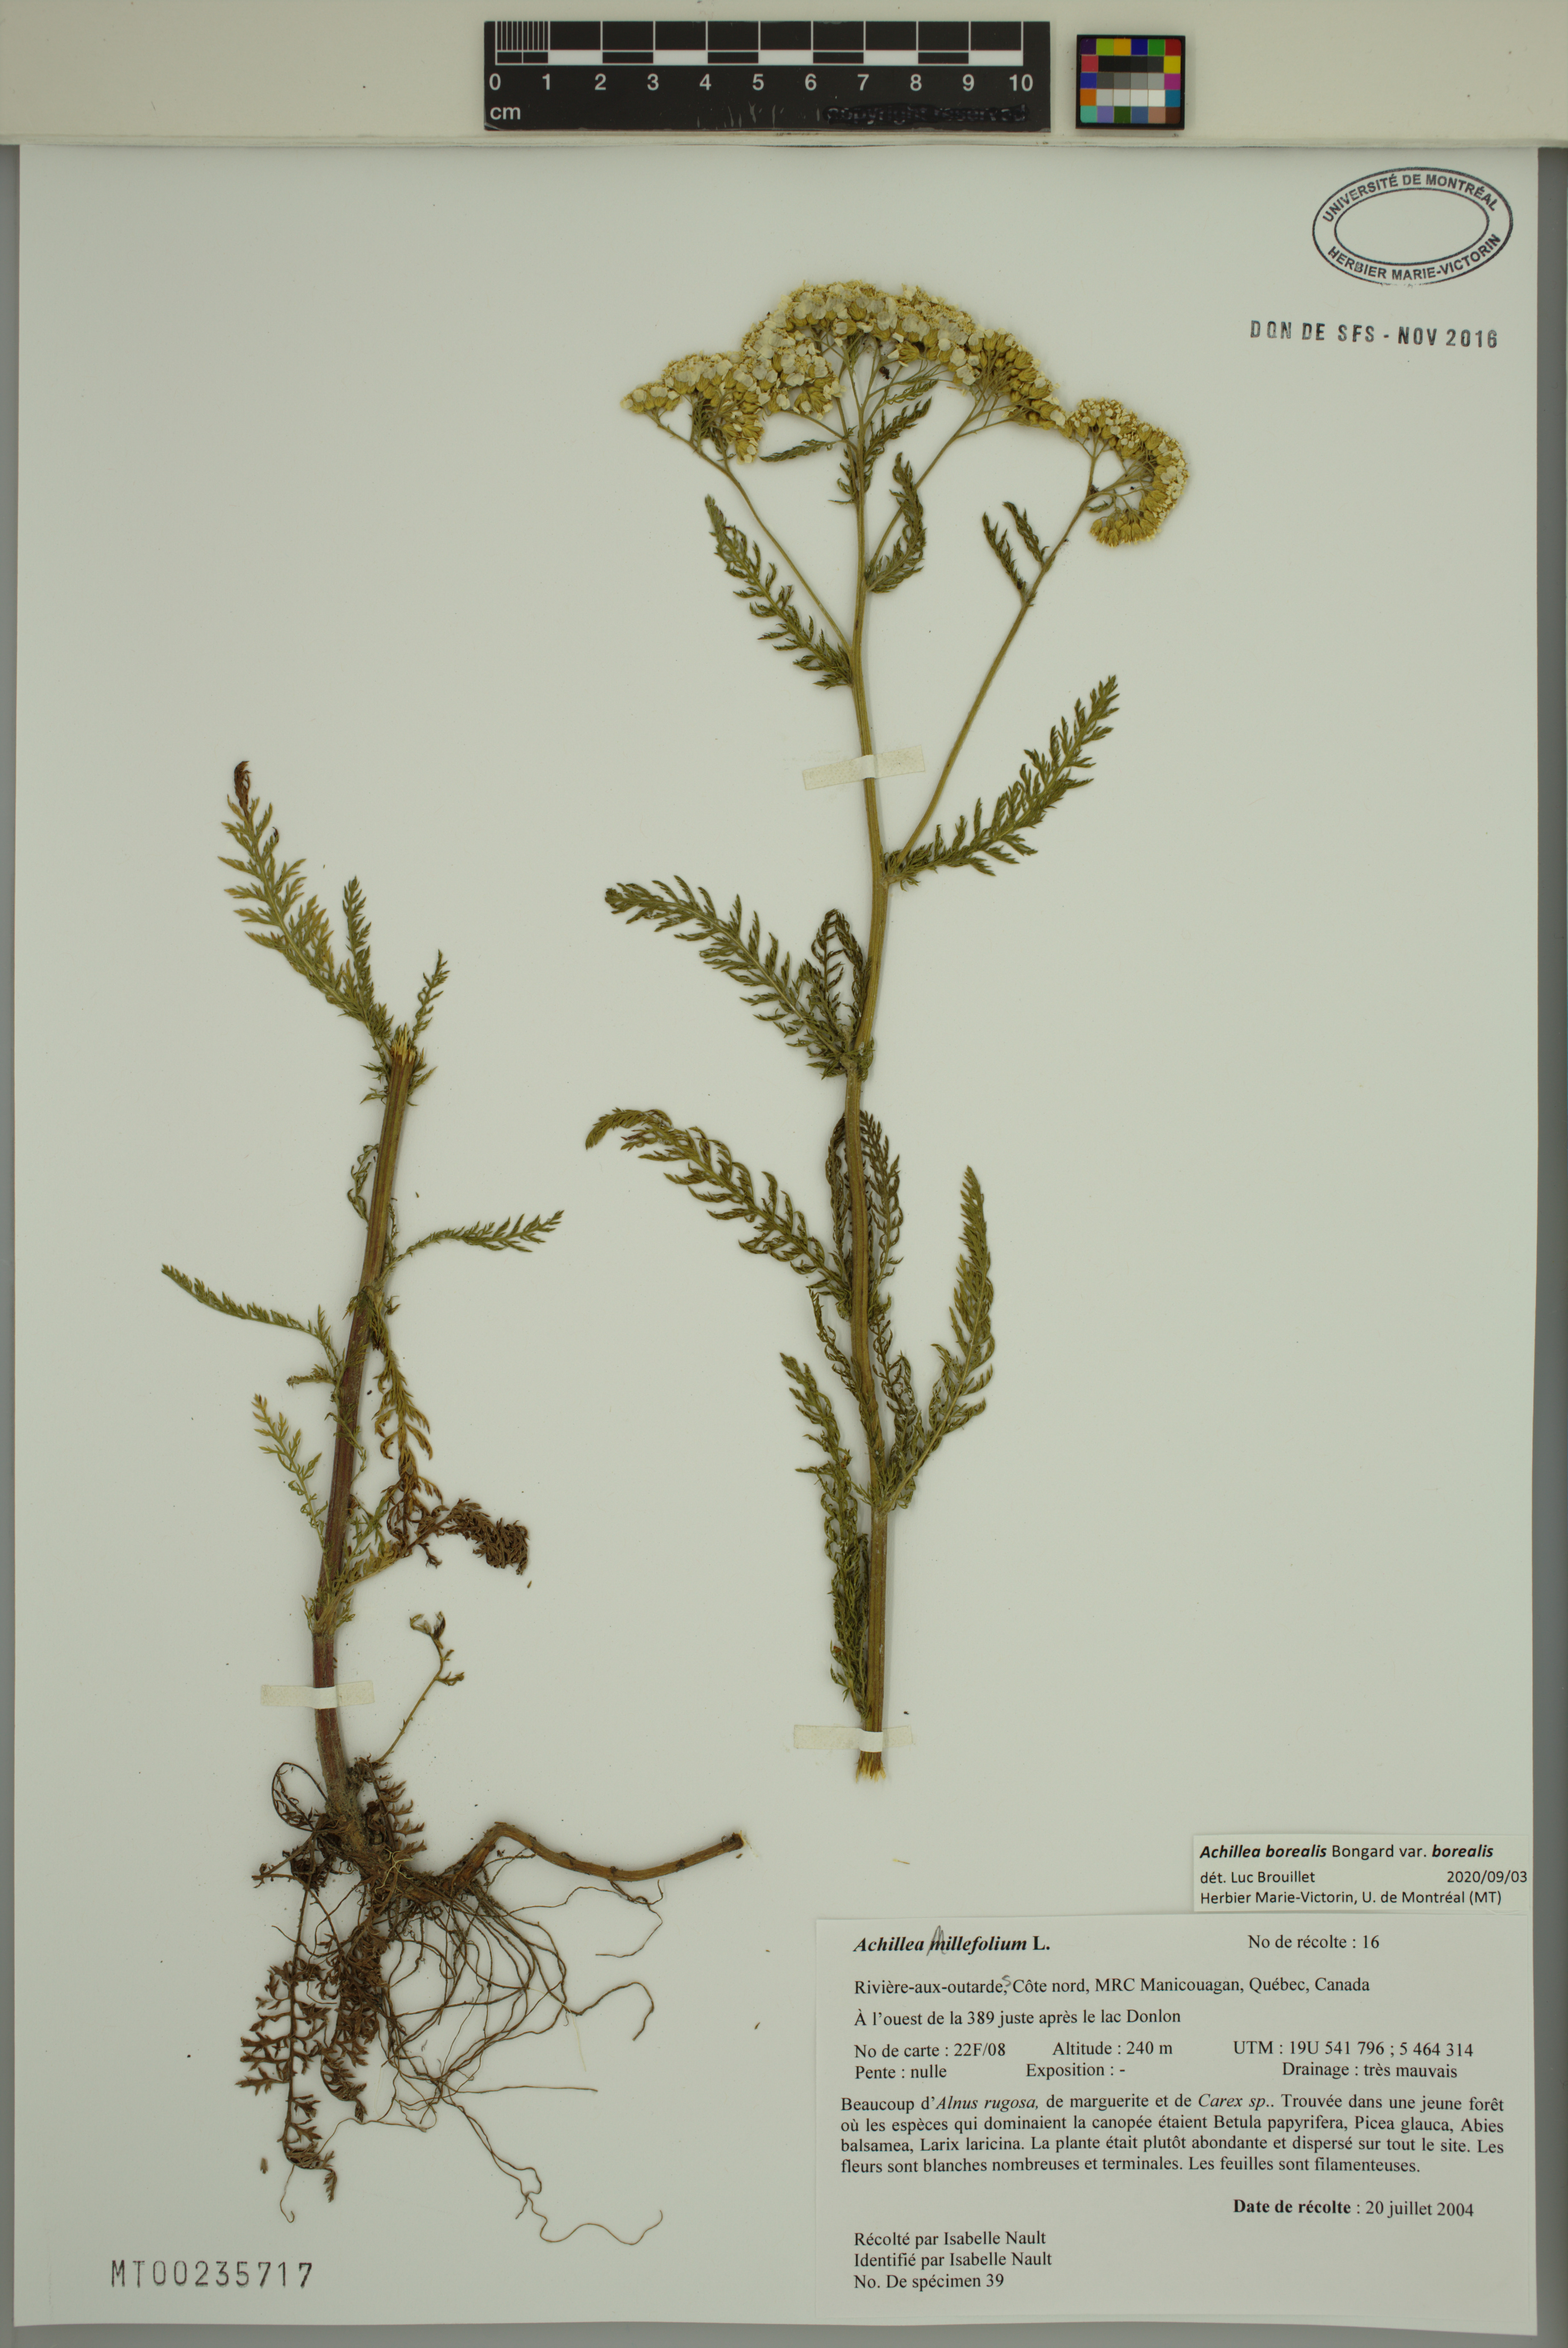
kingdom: Plantae
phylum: Tracheophyta
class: Magnoliopsida
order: Asterales
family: Asteraceae
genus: Achillea
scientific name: Achillea millefolium
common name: Yarrow
